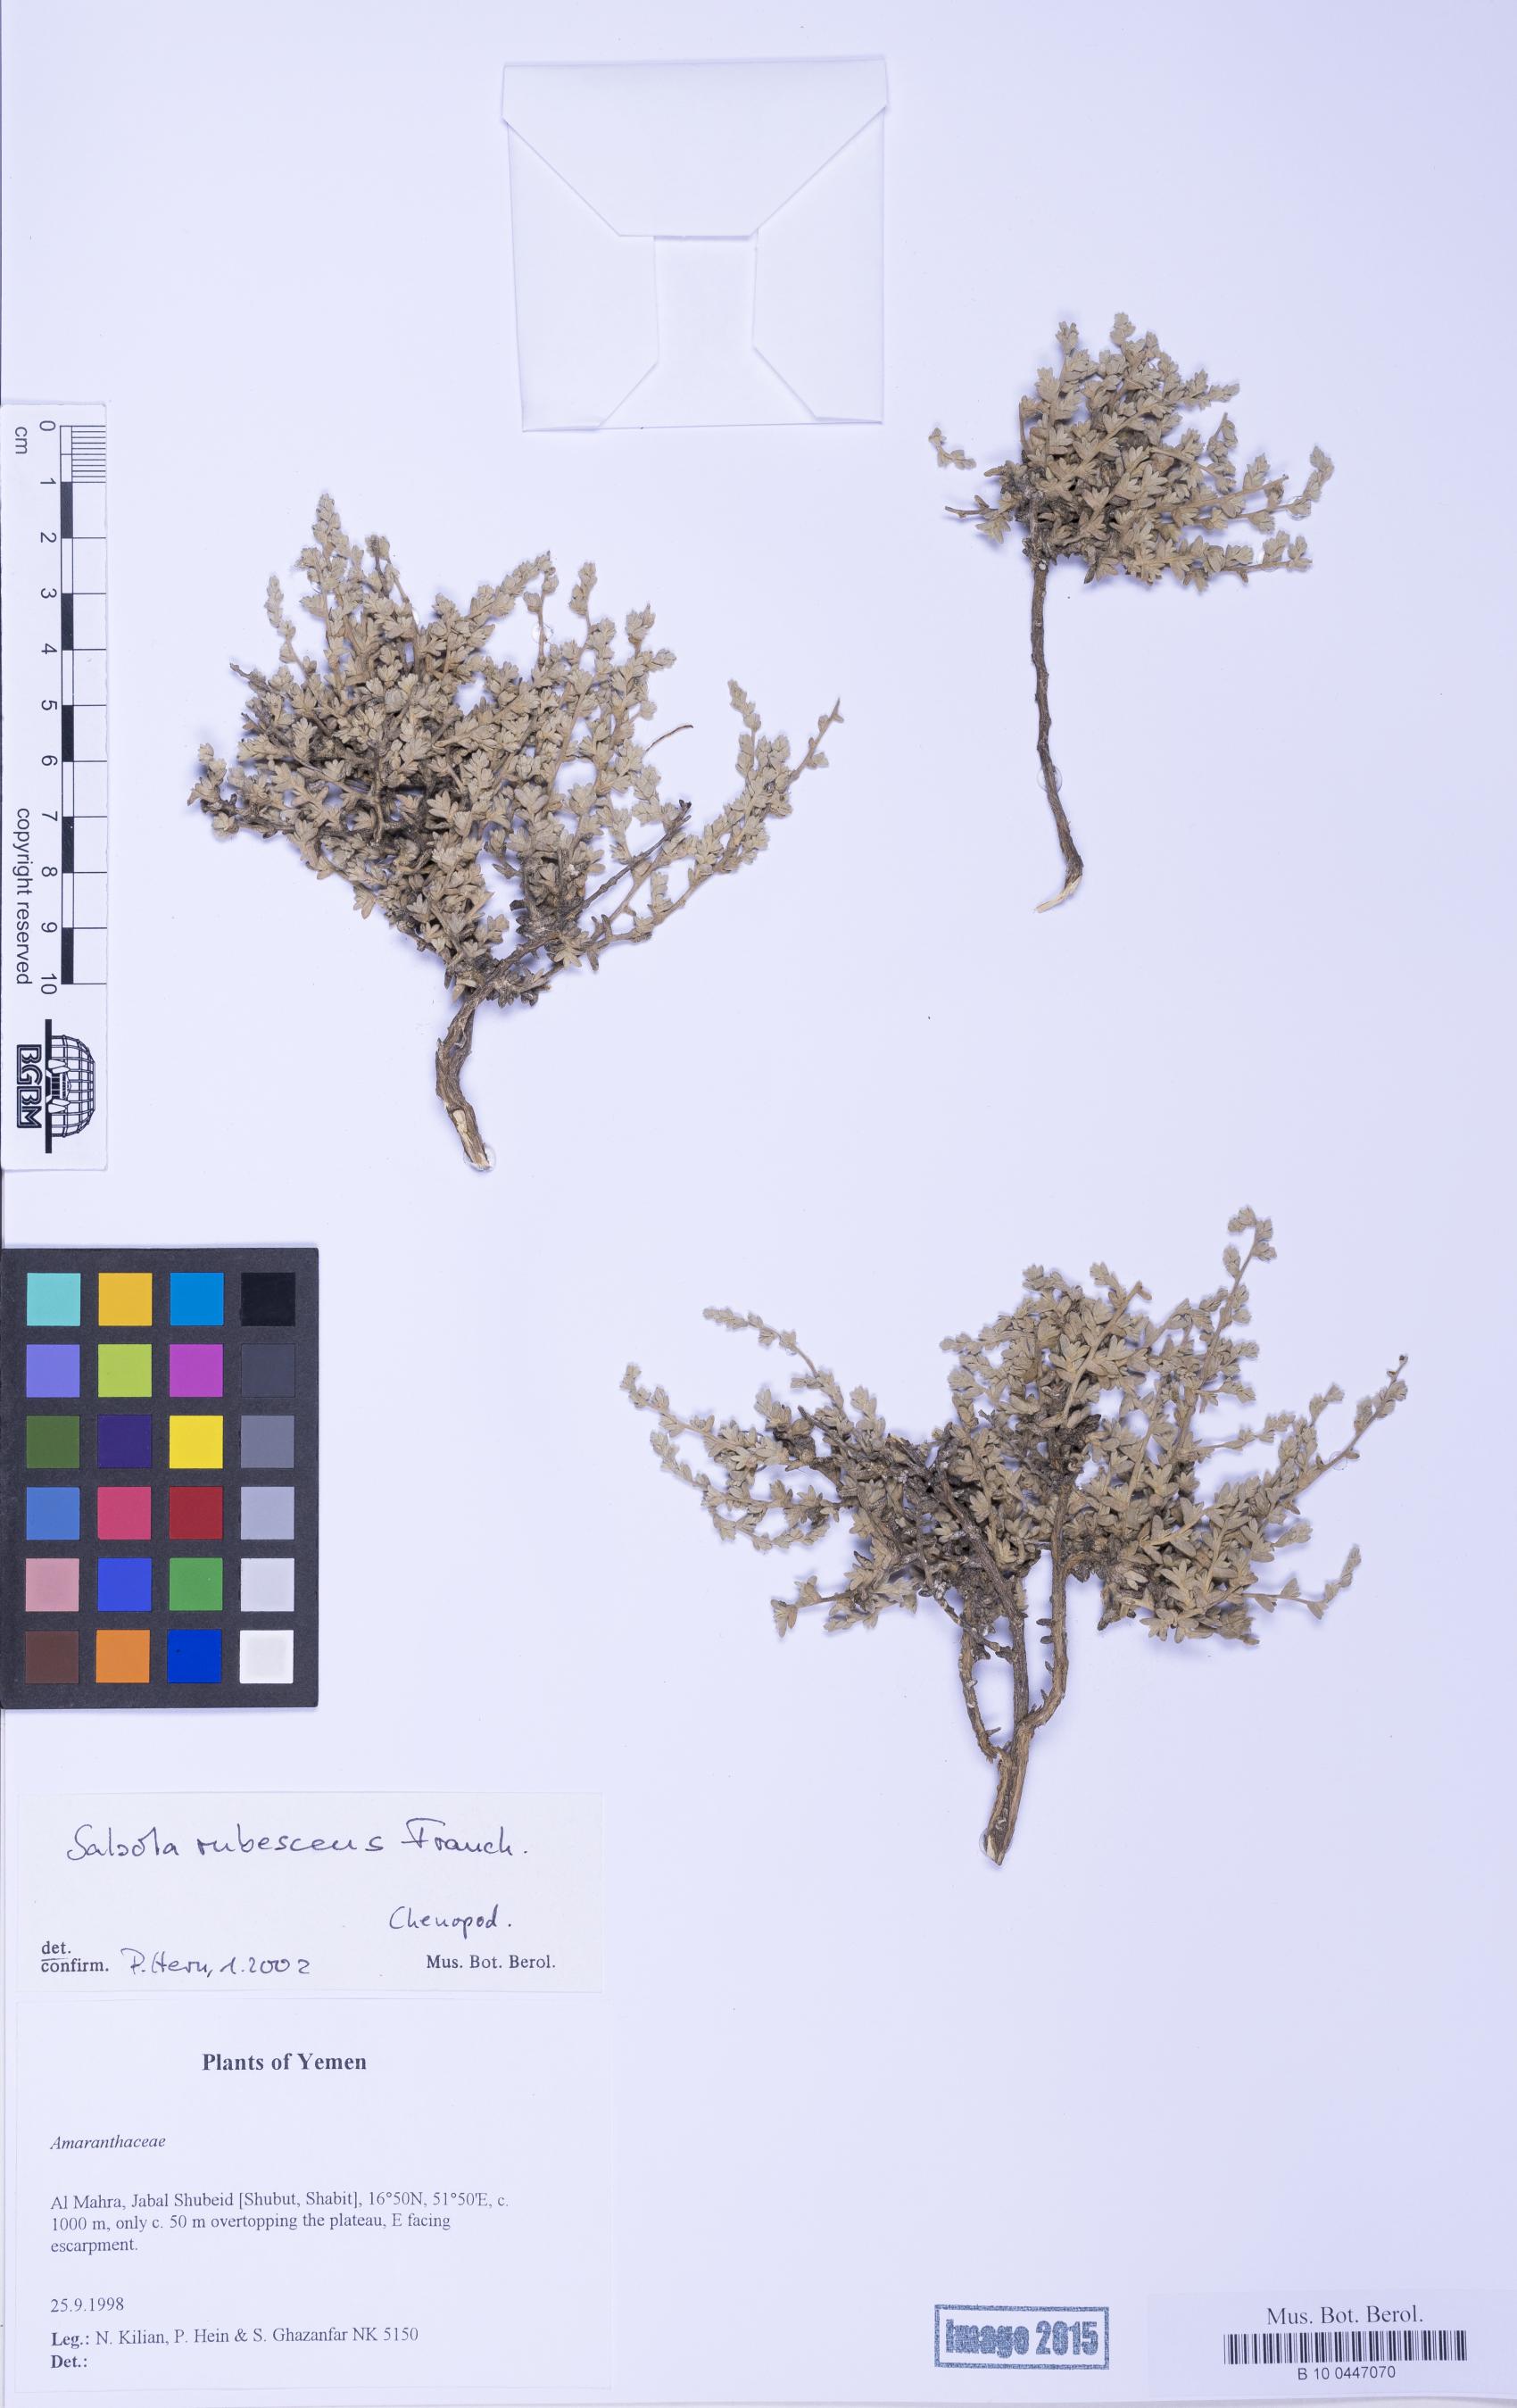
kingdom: Plantae
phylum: Tracheophyta
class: Magnoliopsida
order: Caryophyllales
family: Amaranthaceae
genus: Kaviria
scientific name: Kaviria rubescens
